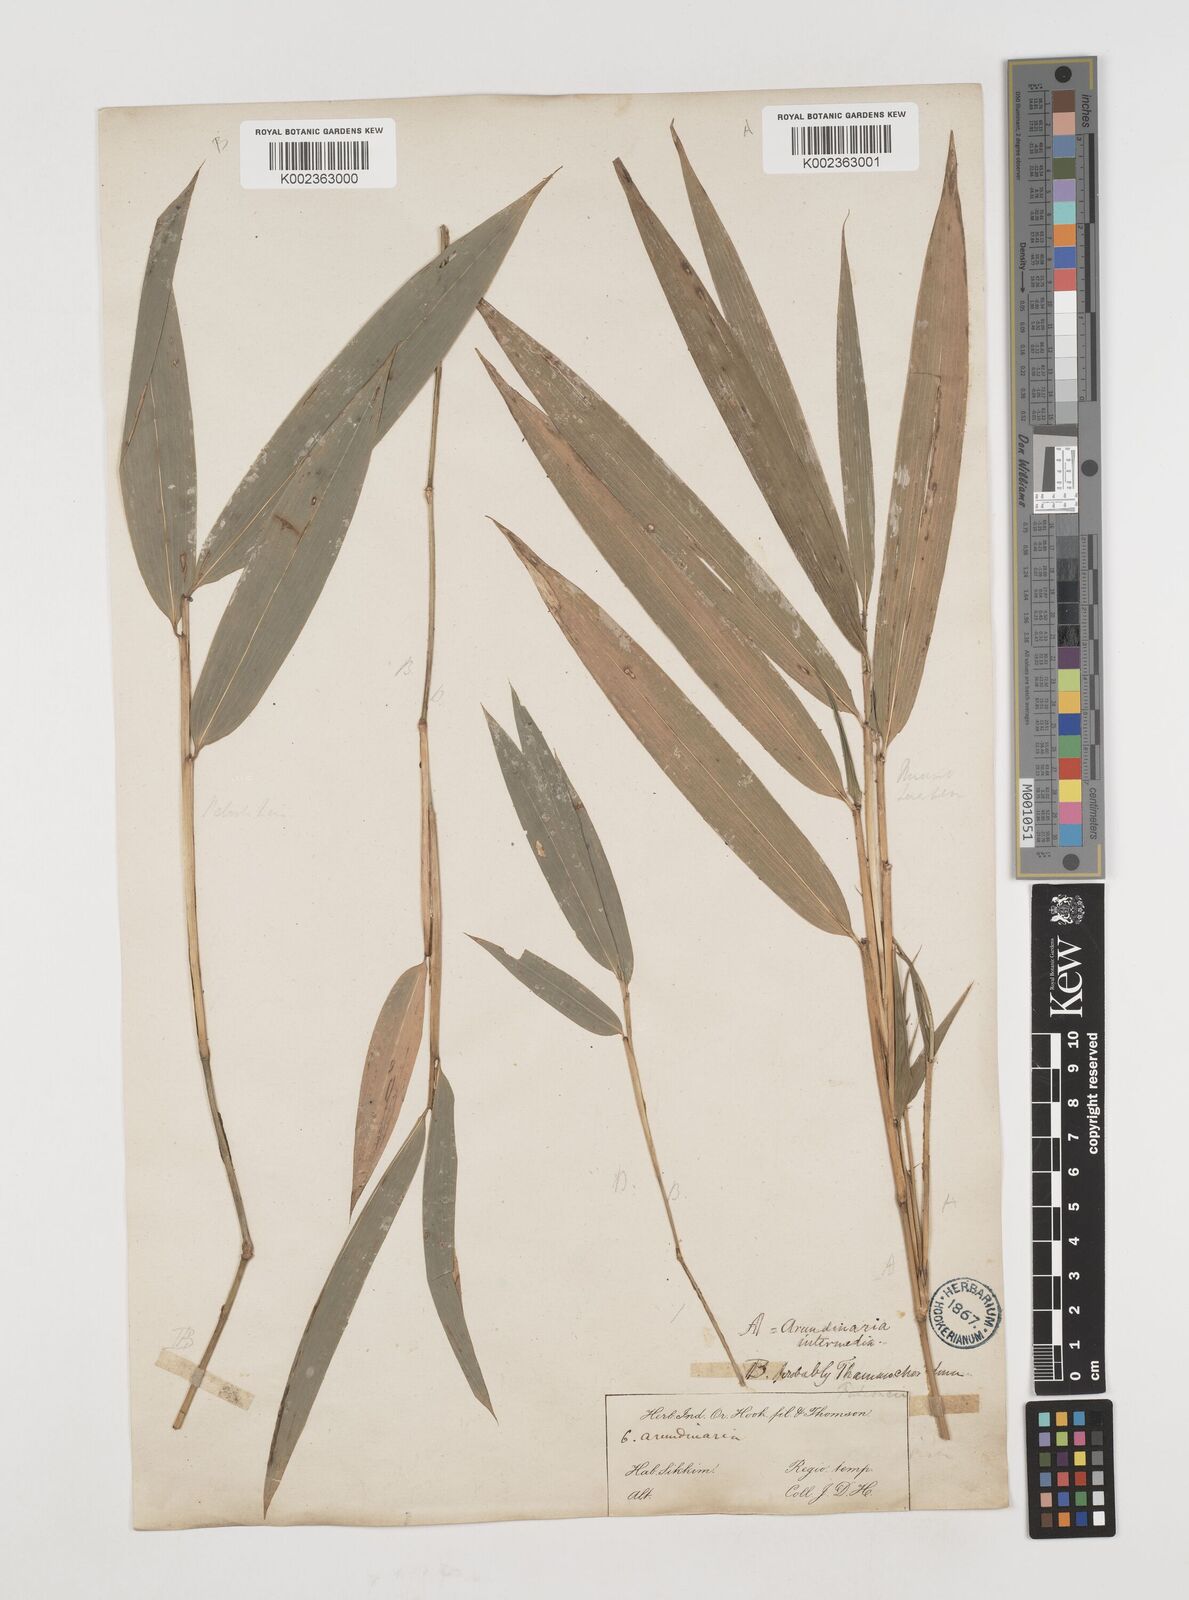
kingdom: Plantae
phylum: Tracheophyta
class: Liliopsida
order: Poales
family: Poaceae
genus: Drepanostachyum
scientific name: Drepanostachyum intermedium
